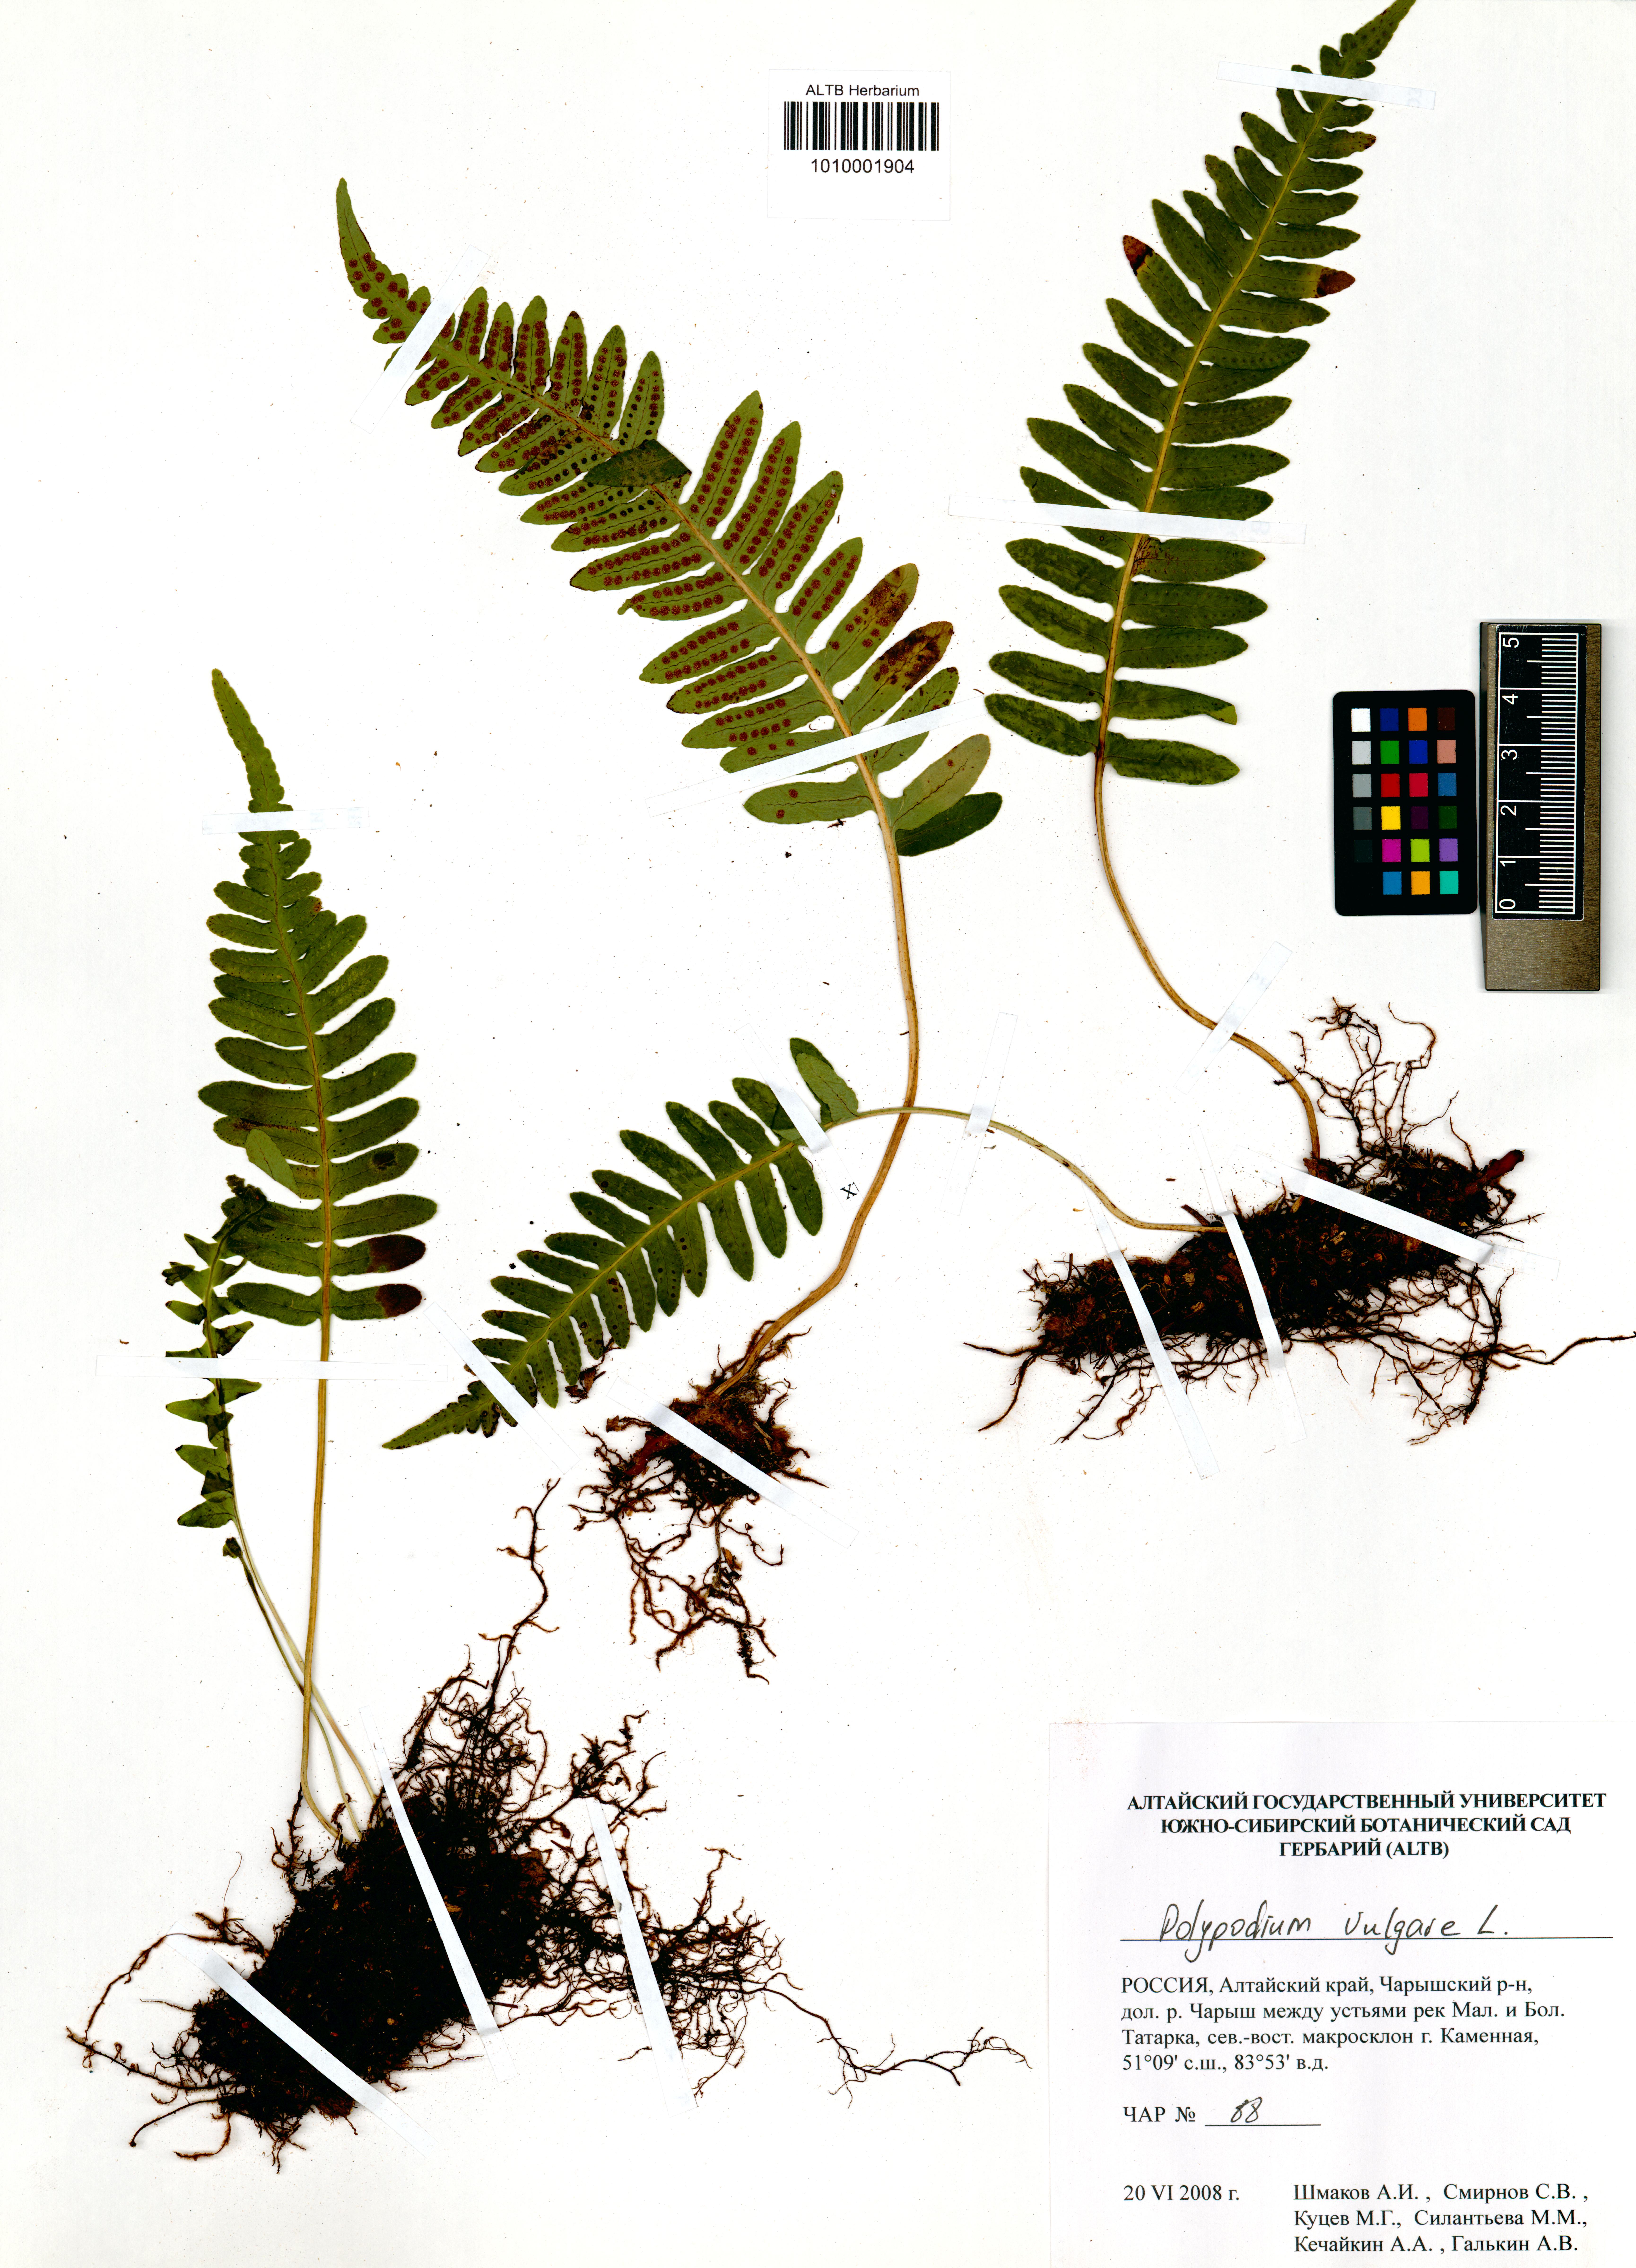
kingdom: Plantae
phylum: Tracheophyta
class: Polypodiopsida
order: Polypodiales
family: Polypodiaceae
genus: Polypodium
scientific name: Polypodium vulgare
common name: Common polypody
